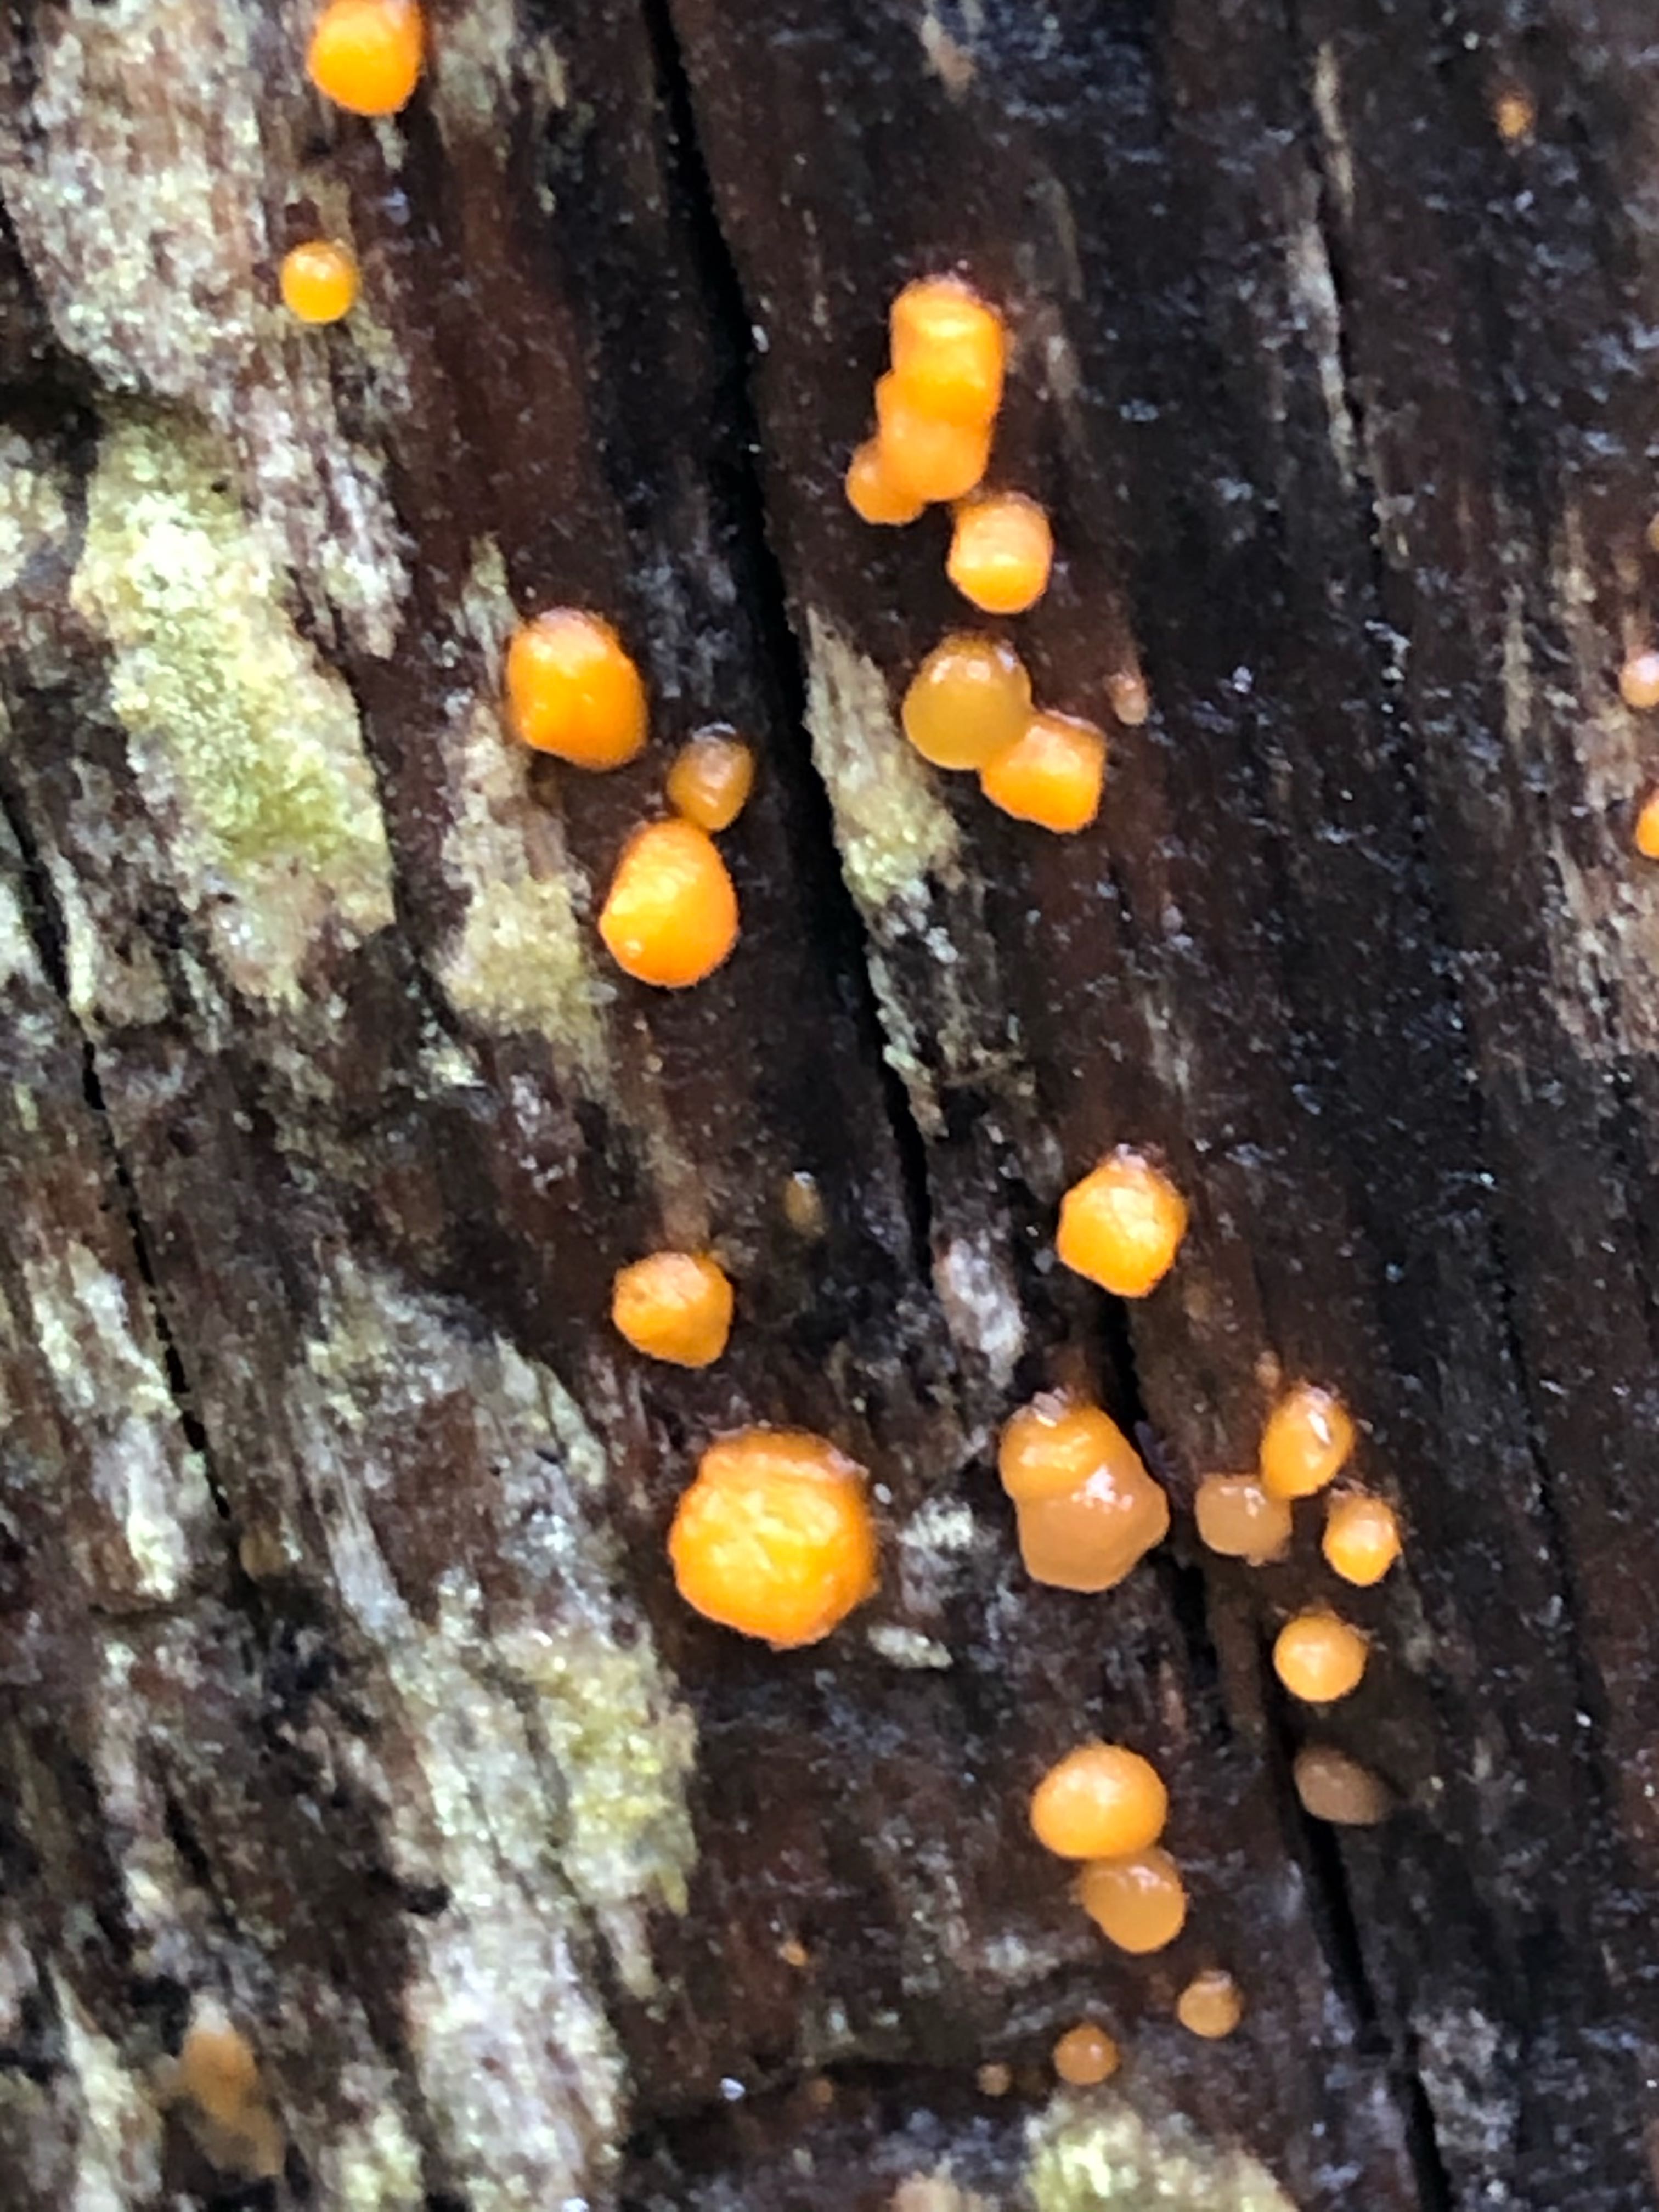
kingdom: Fungi
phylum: Basidiomycota
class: Dacrymycetes
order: Dacrymycetales
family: Dacrymycetaceae
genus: Dacrymyces
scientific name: Dacrymyces stillatus
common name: almindelig tåresvamp
